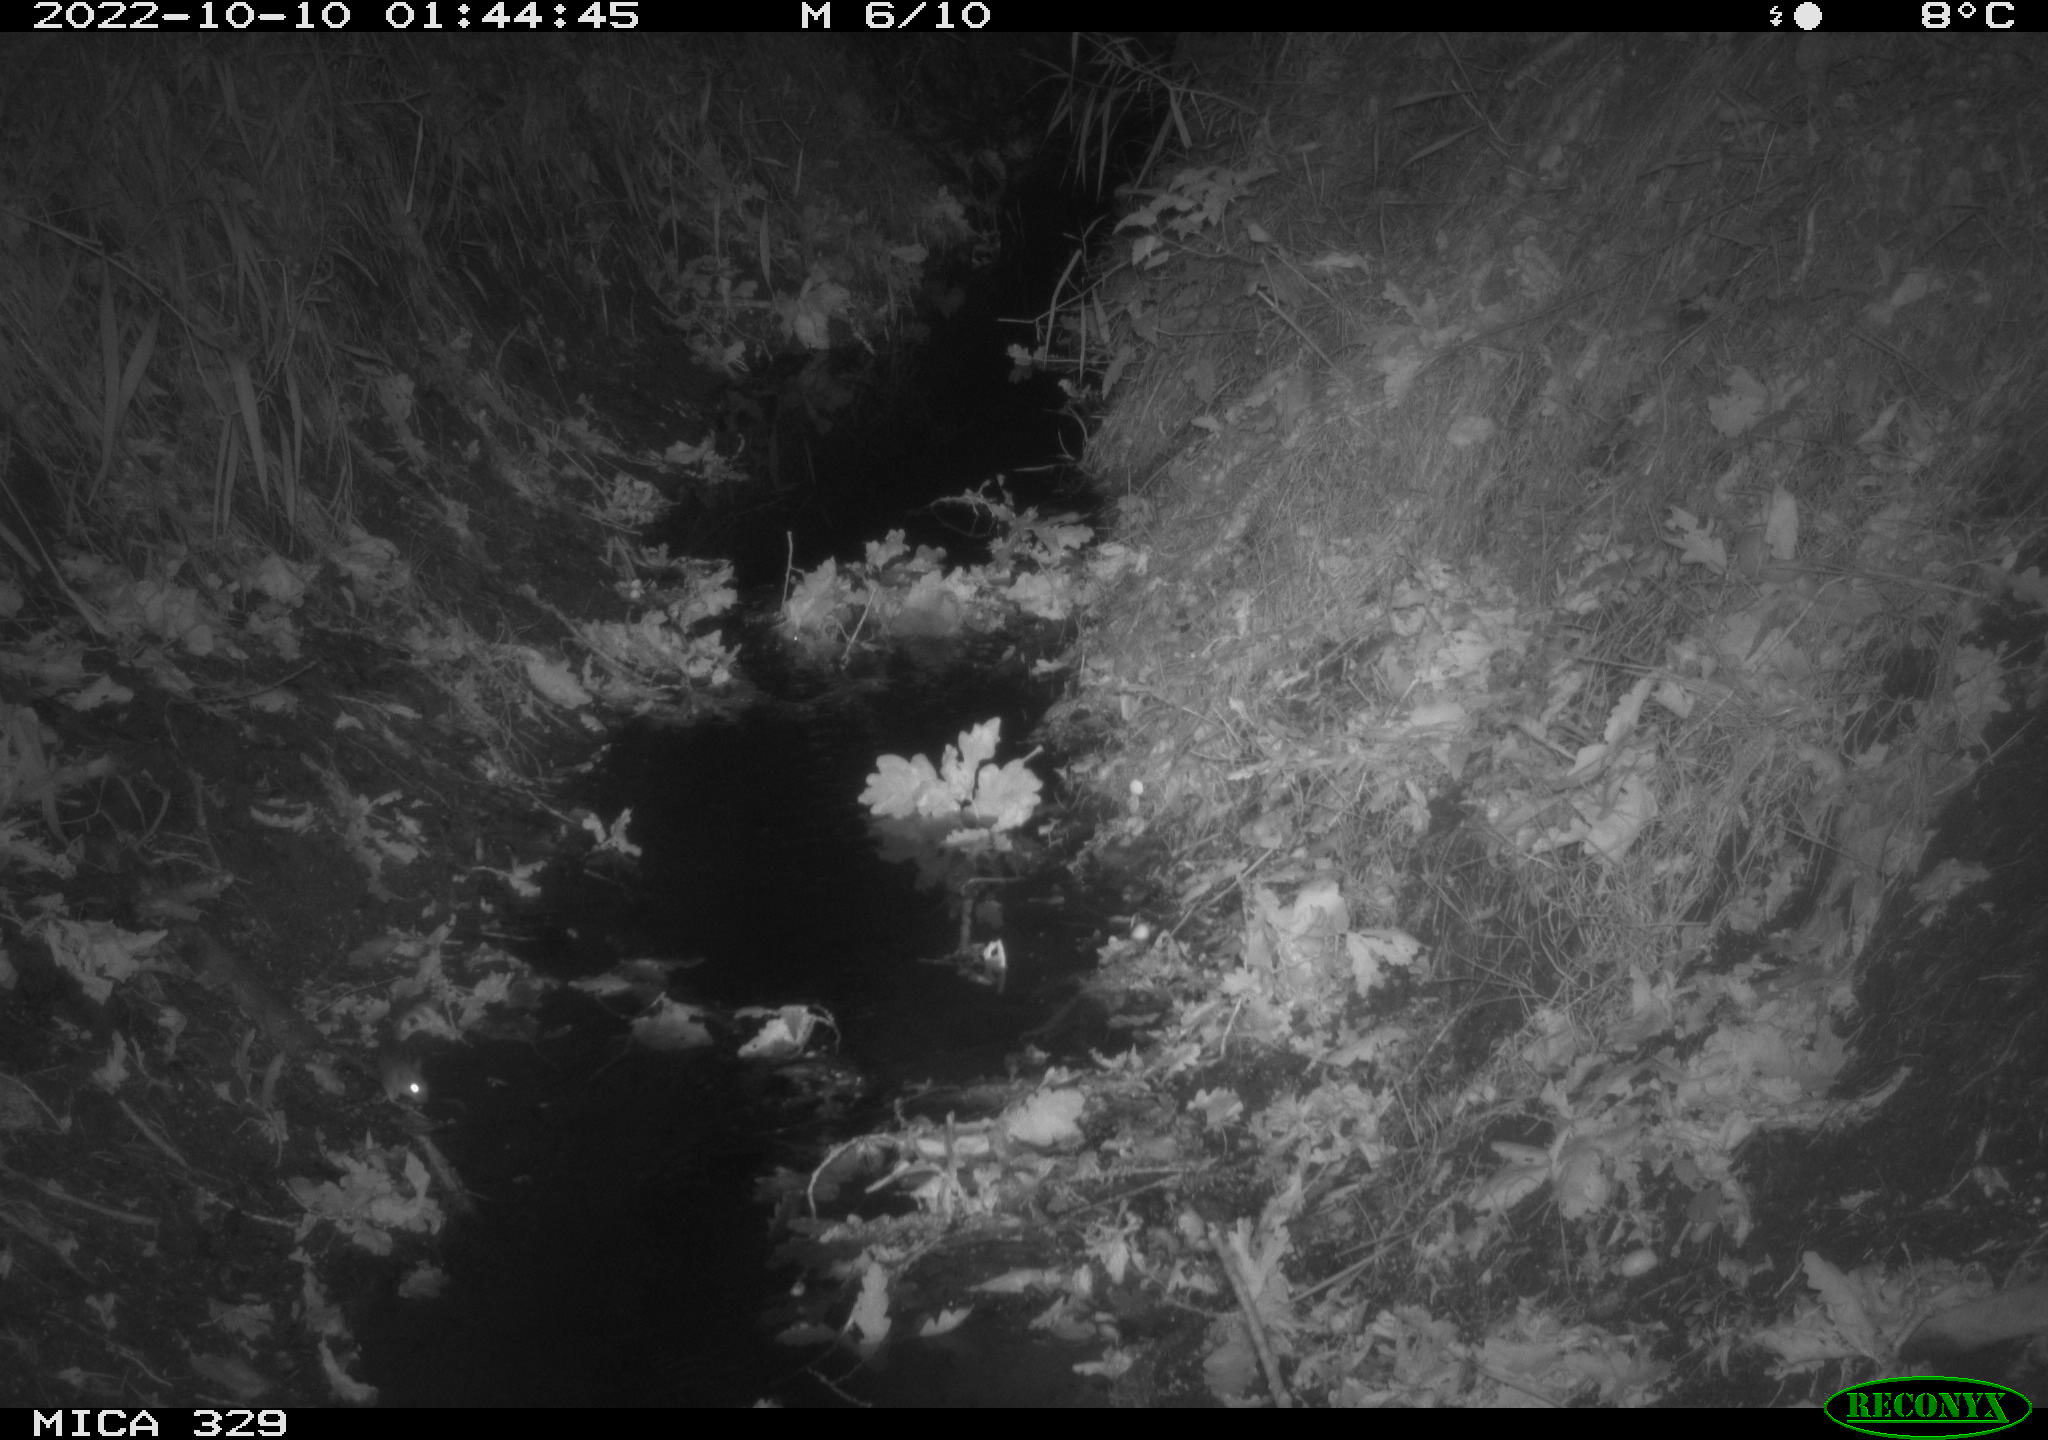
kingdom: Animalia
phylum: Chordata
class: Mammalia
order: Rodentia
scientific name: Rodentia
